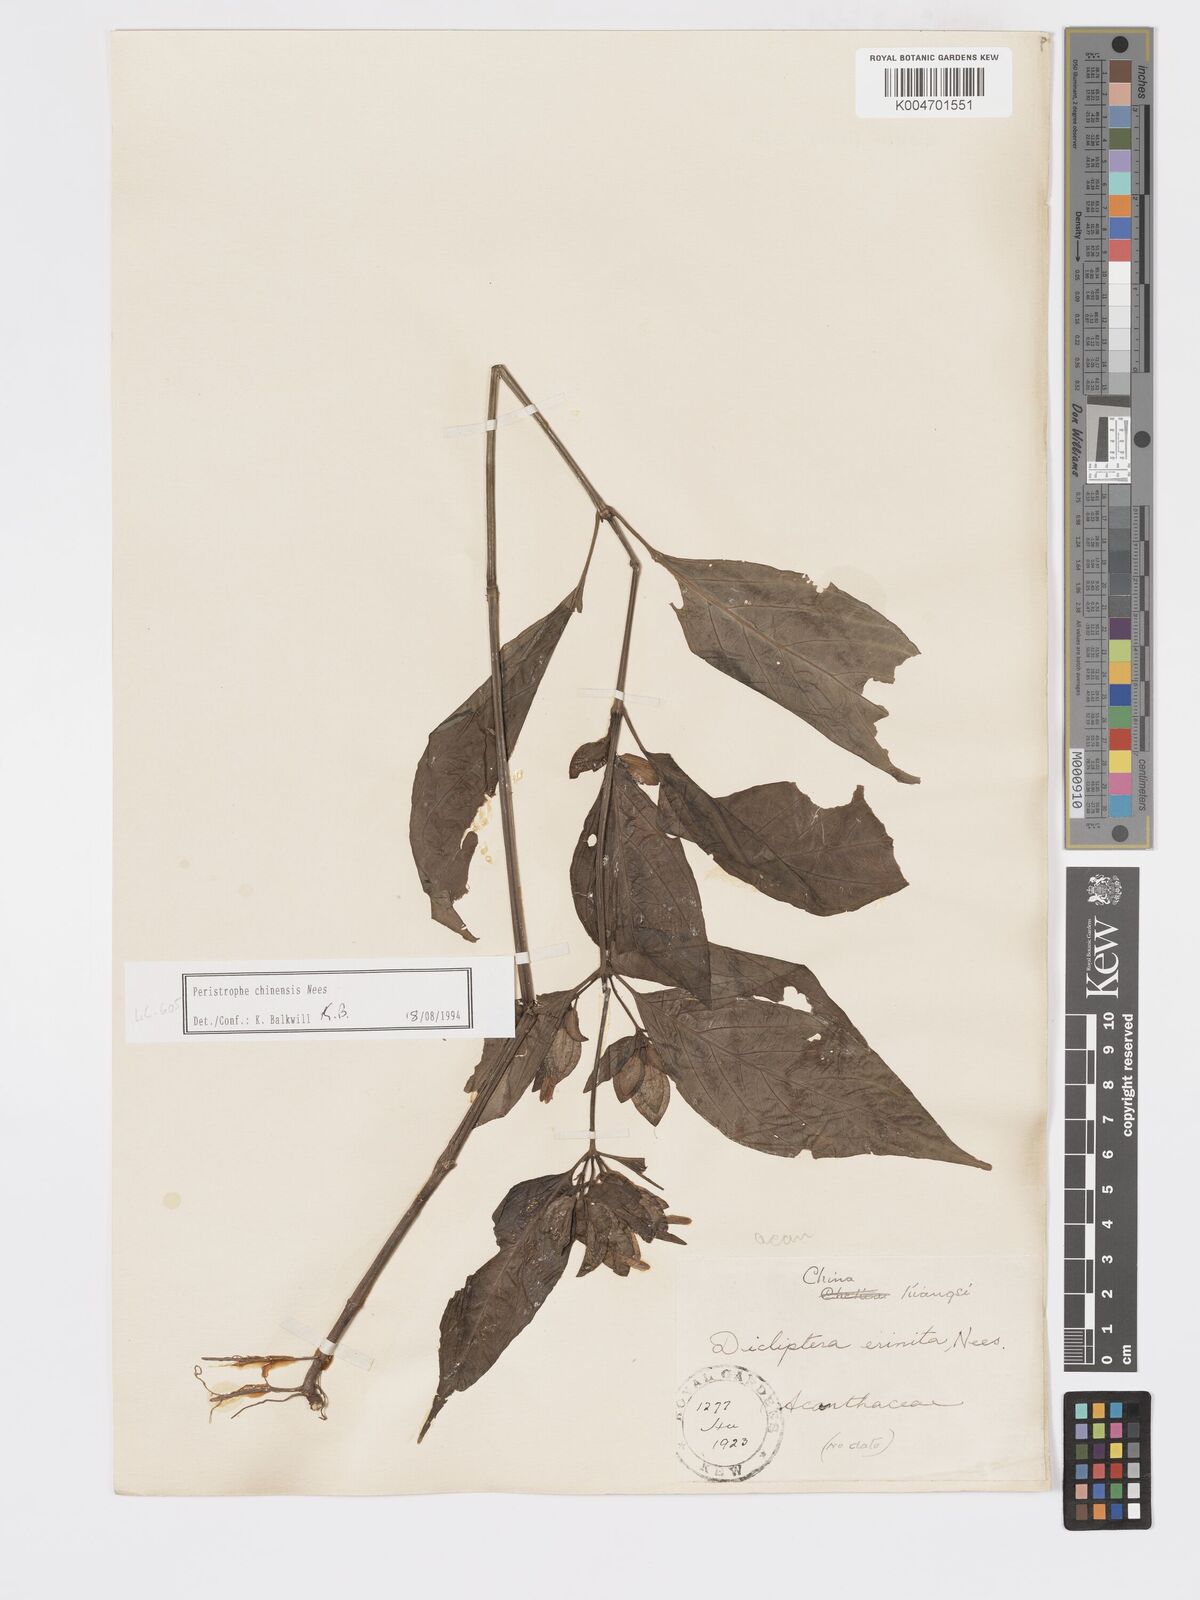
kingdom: Plantae
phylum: Tracheophyta
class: Magnoliopsida
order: Lamiales
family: Acanthaceae
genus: Dicliptera
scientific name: Dicliptera chinensis
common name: Chinese foldwing
